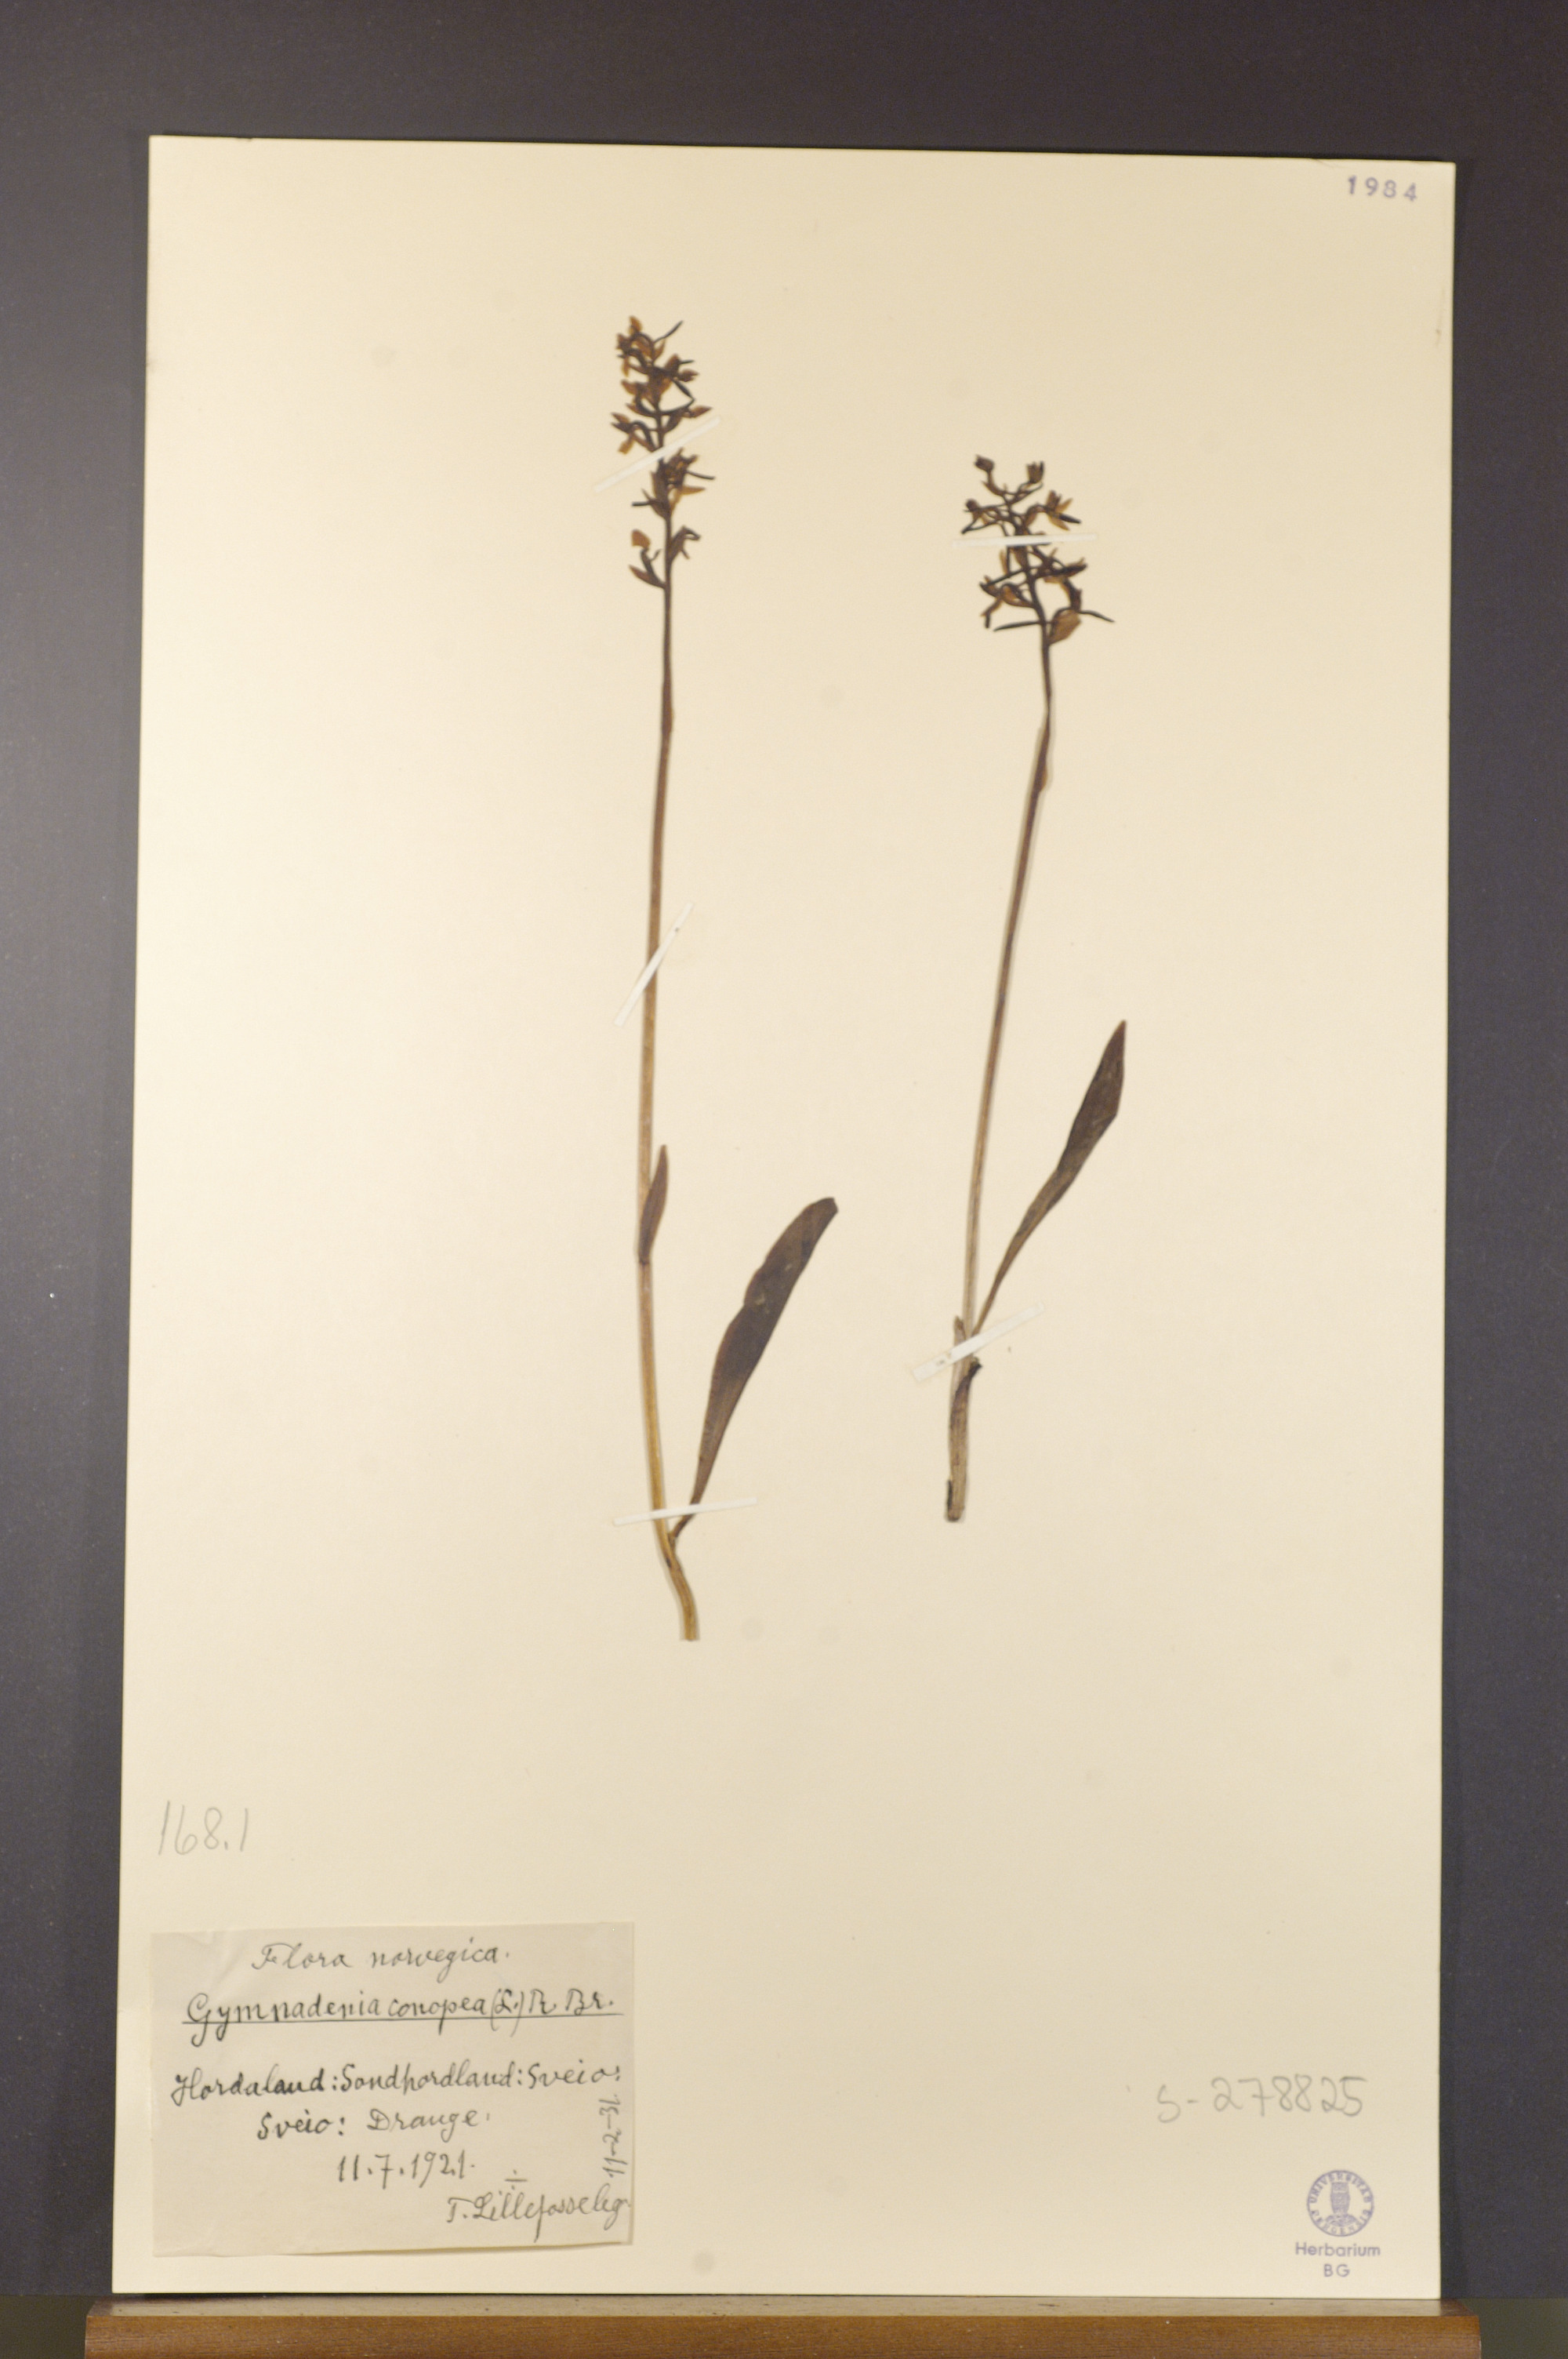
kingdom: Plantae
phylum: Tracheophyta
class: Liliopsida
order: Asparagales
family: Orchidaceae
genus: Gymnadenia
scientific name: Gymnadenia conopsea
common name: Fragrant orchid
